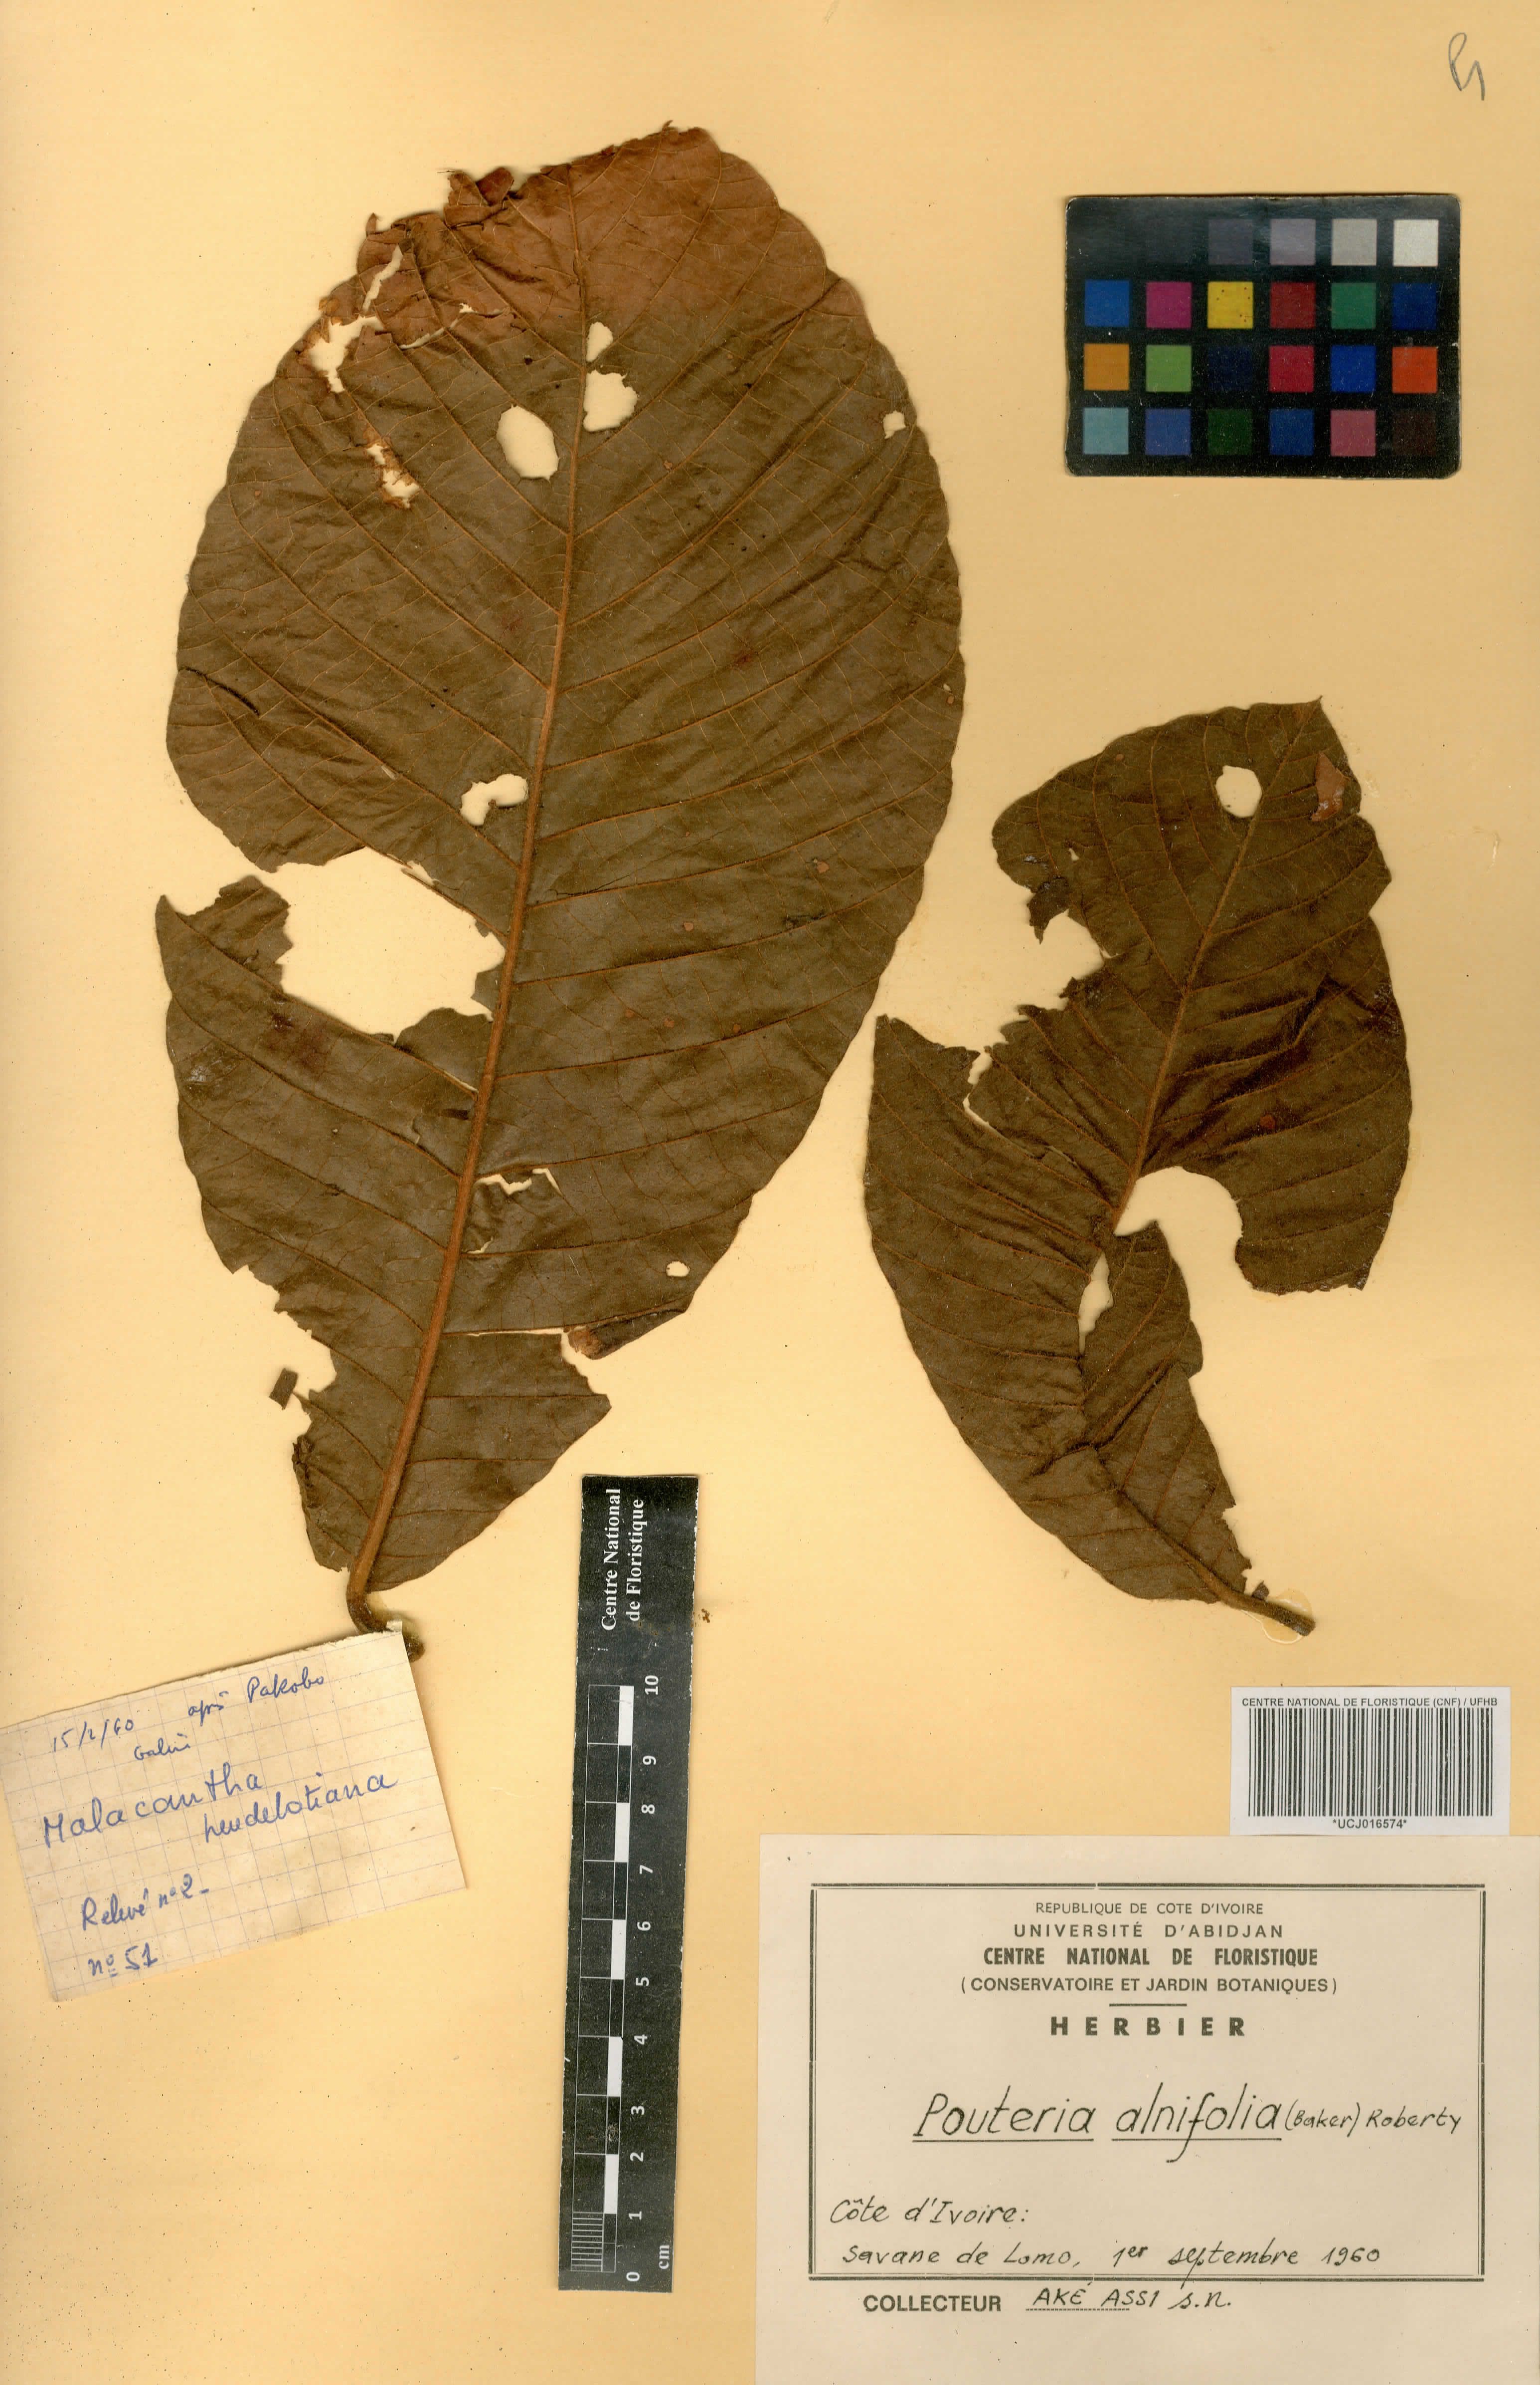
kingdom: Plantae
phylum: Tracheophyta
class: Magnoliopsida
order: Ericales
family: Sapotaceae
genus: Malacantha
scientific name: Malacantha alnifolia
